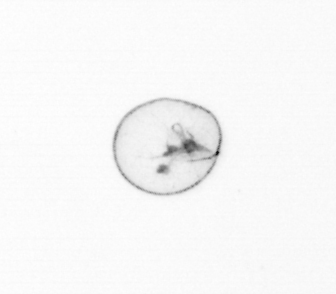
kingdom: Chromista
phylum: Myzozoa
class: Dinophyceae
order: Noctilucales
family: Noctilucaceae
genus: Noctiluca
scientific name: Noctiluca scintillans
